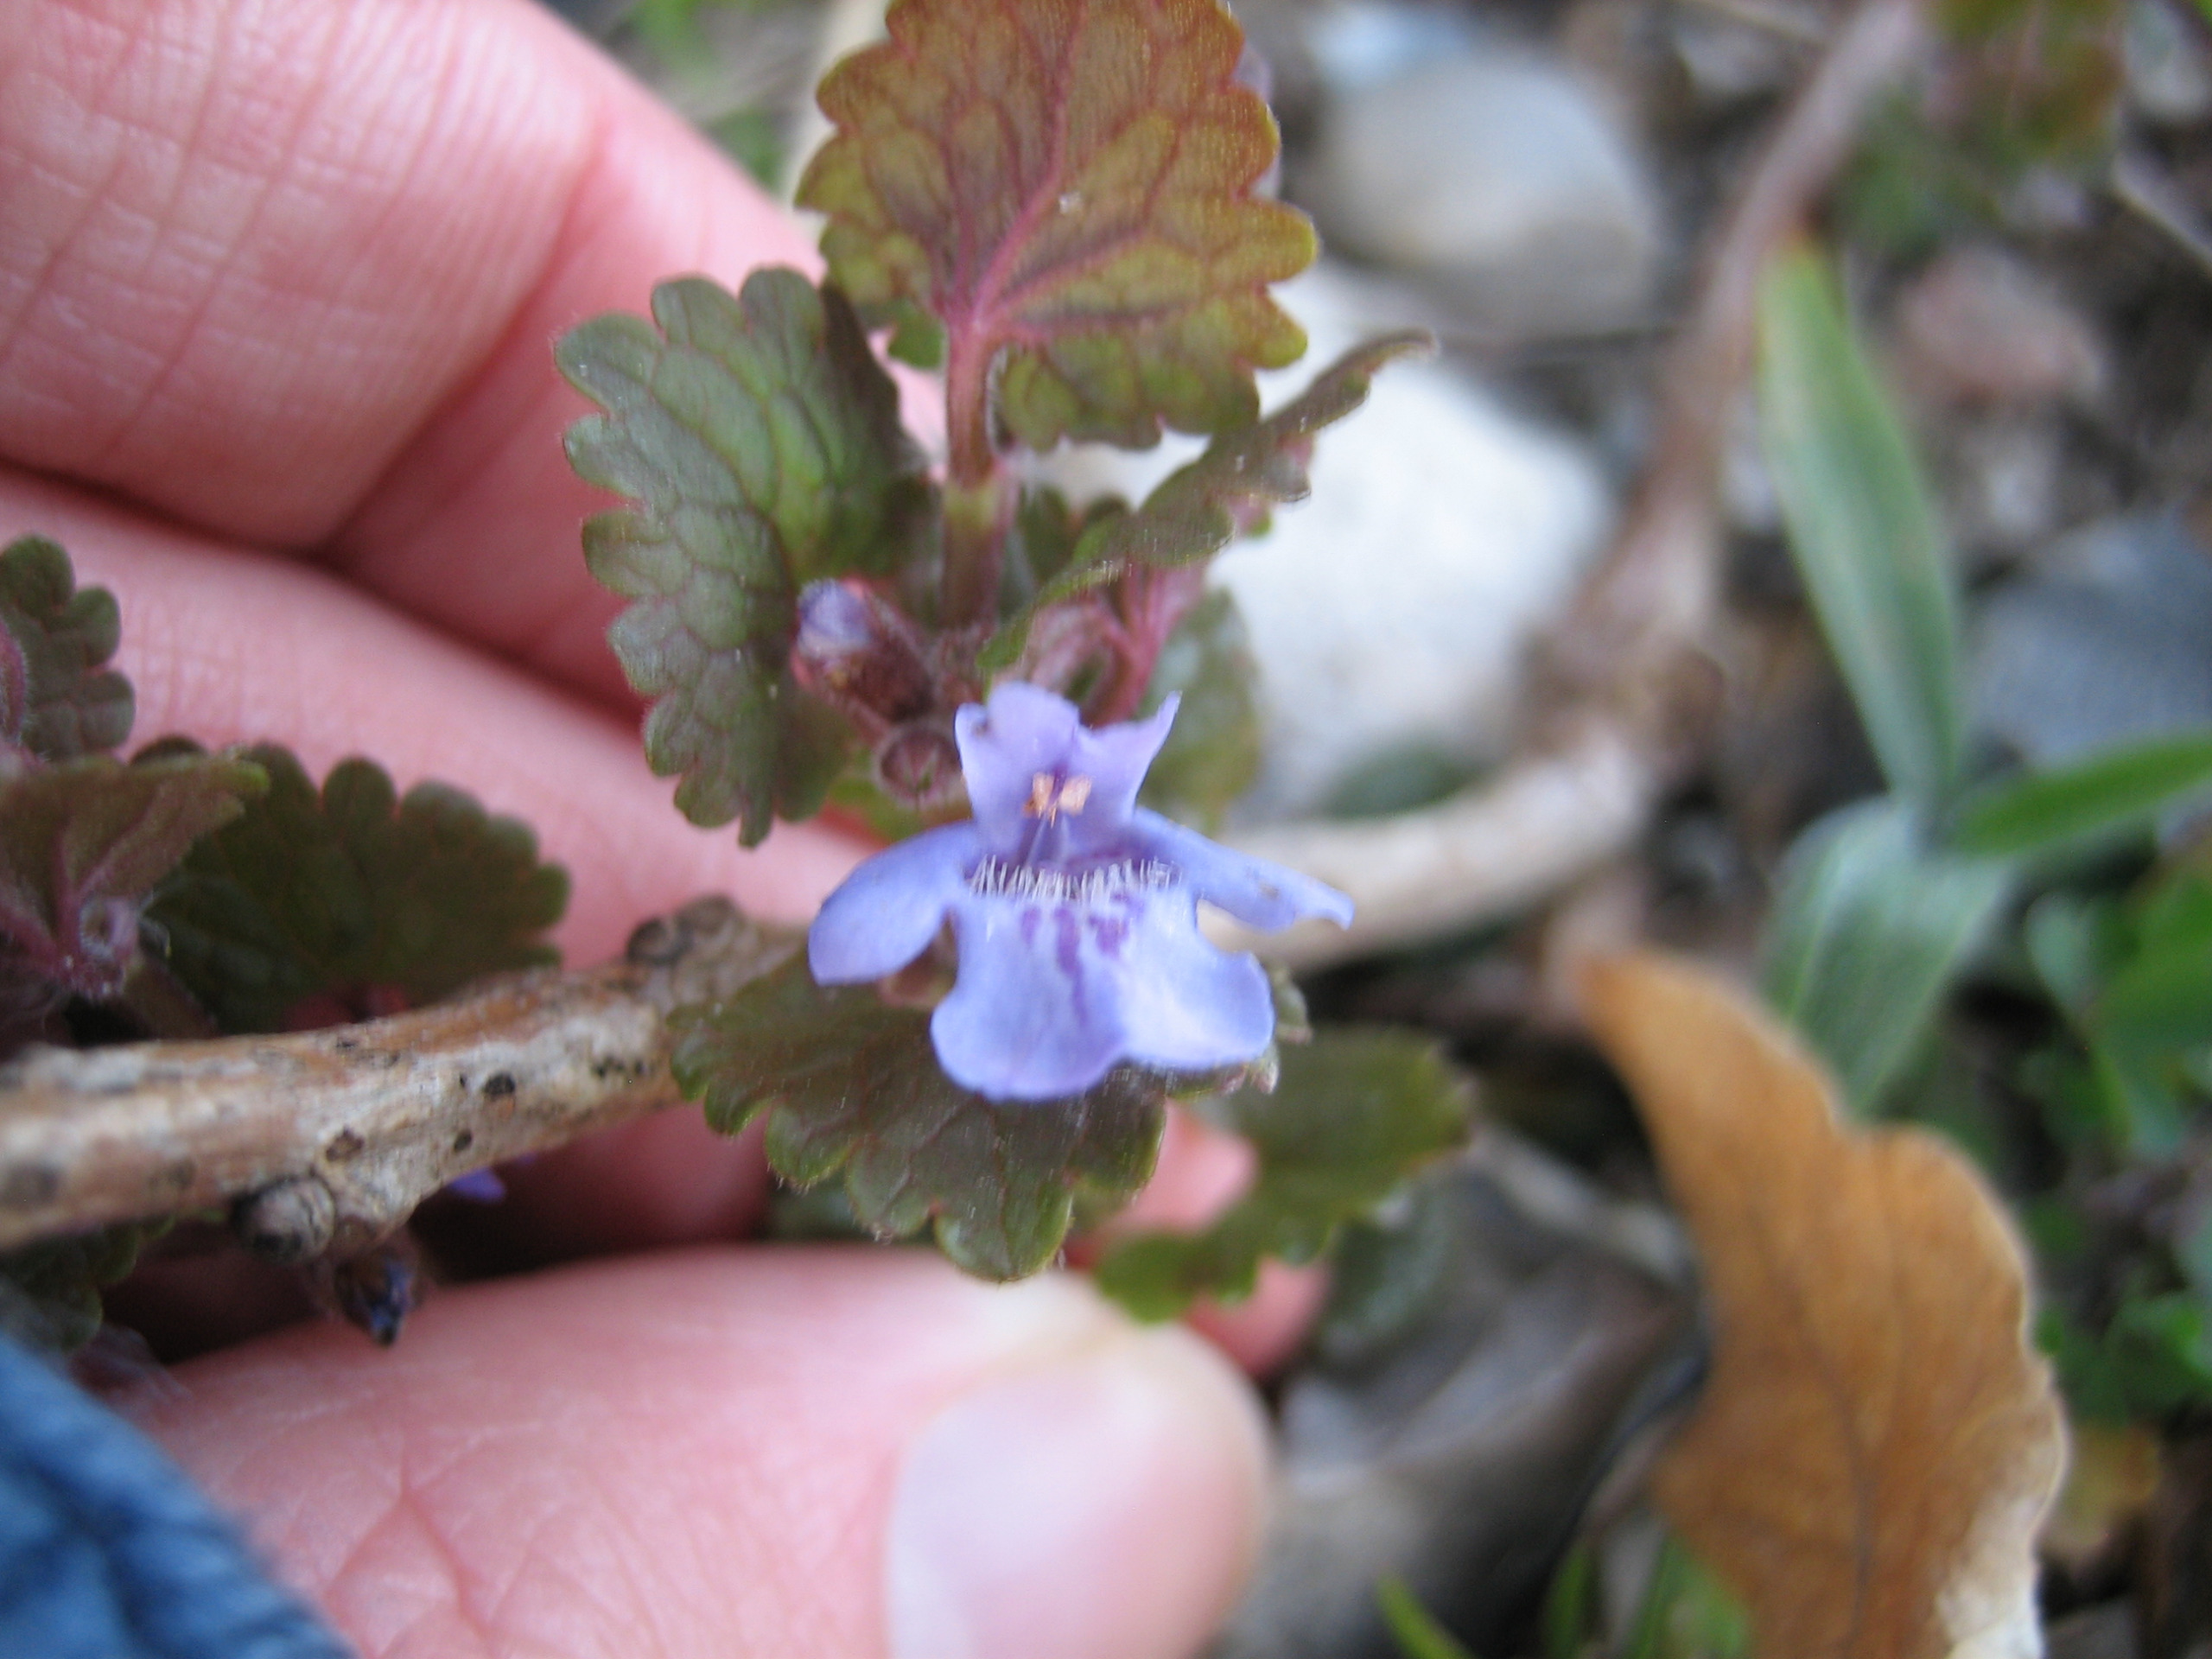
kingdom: Plantae
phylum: Tracheophyta
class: Magnoliopsida
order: Lamiales
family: Lamiaceae
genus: Glechoma
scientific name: Glechoma hederacea
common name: Korsknap
